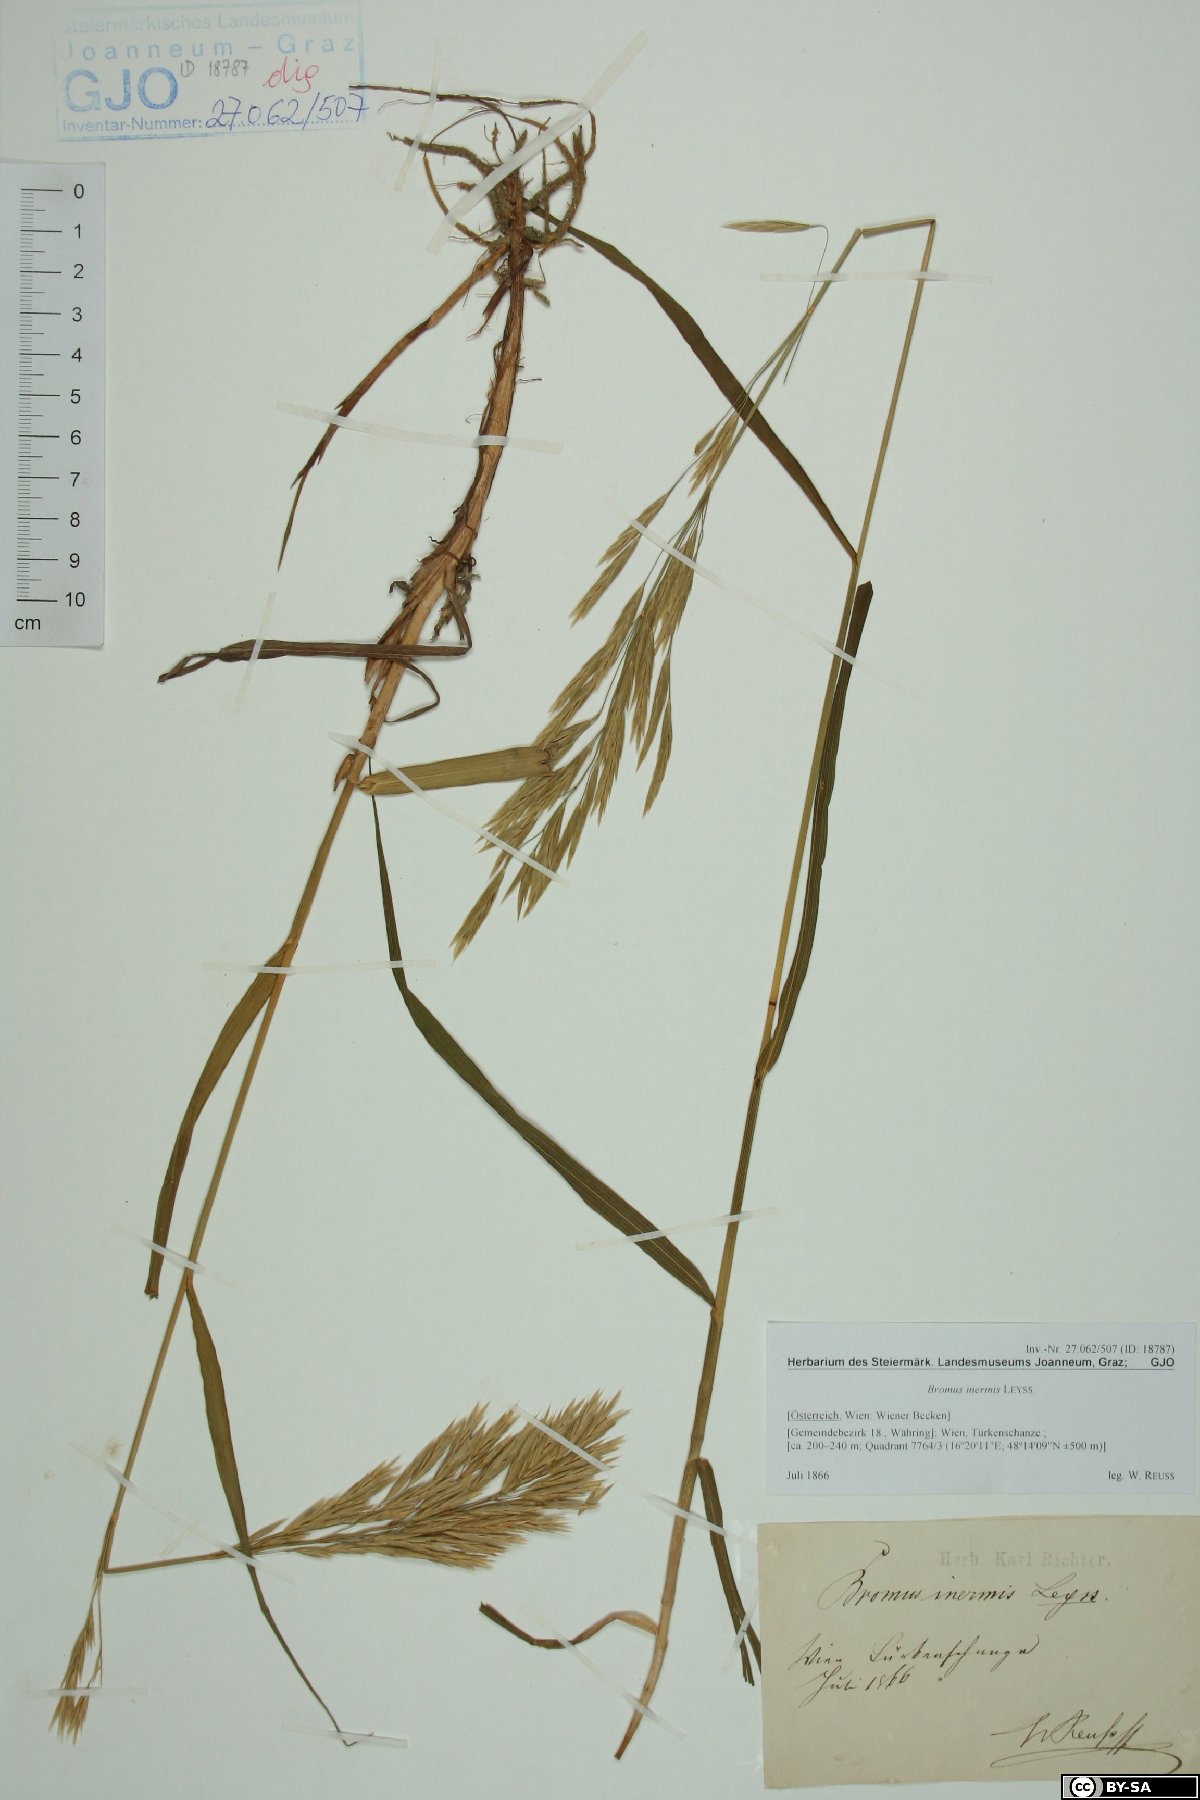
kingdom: Plantae
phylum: Tracheophyta
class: Liliopsida
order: Poales
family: Poaceae
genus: Bromus
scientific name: Bromus inermis
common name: Smooth brome
